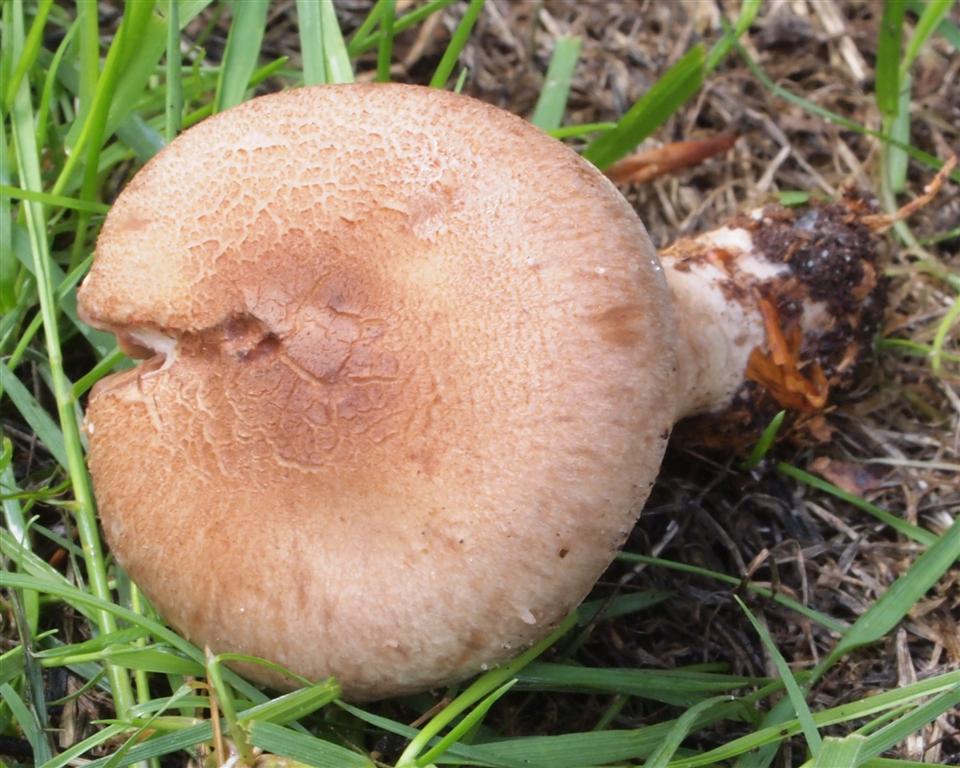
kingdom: Fungi
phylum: Basidiomycota
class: Agaricomycetes
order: Agaricales
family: Cortinariaceae
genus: Cortinarius
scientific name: Cortinarius torvus
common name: champignonagtig slørhat
